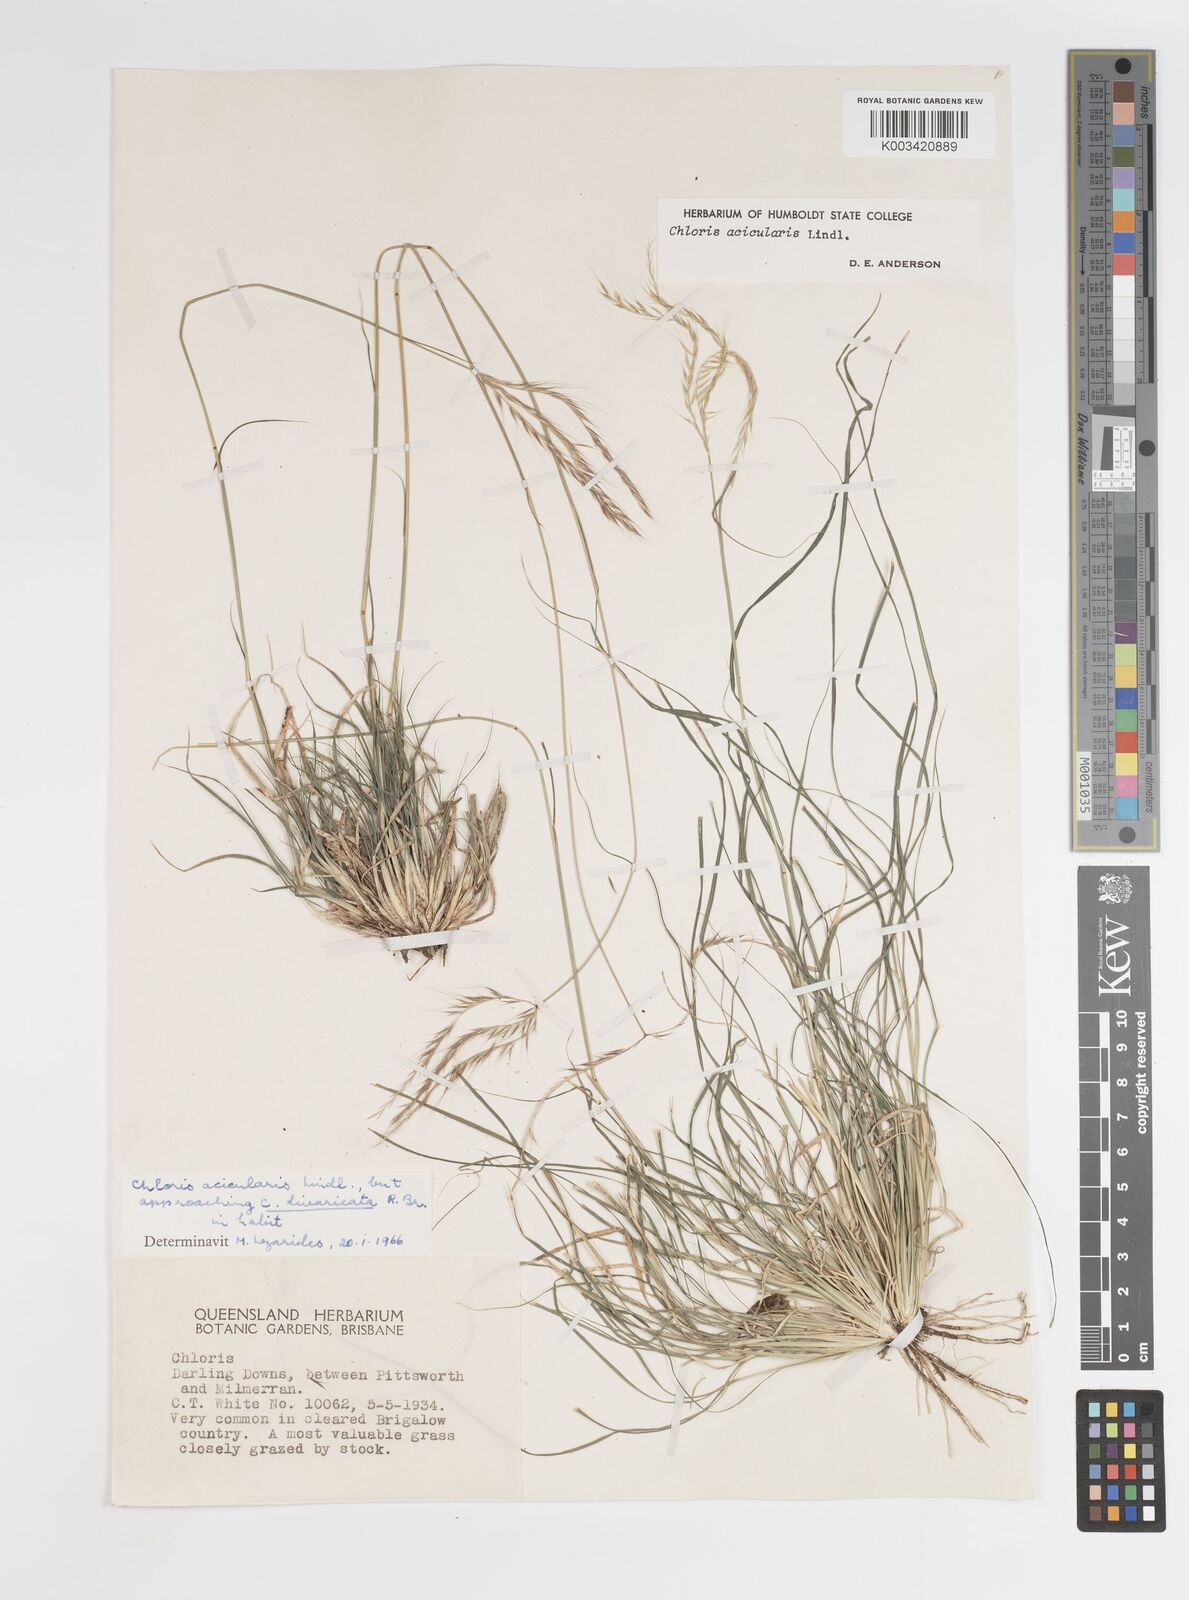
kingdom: Plantae
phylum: Tracheophyta
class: Liliopsida
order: Poales
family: Poaceae
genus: Enteropogon
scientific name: Enteropogon paucispiceus
